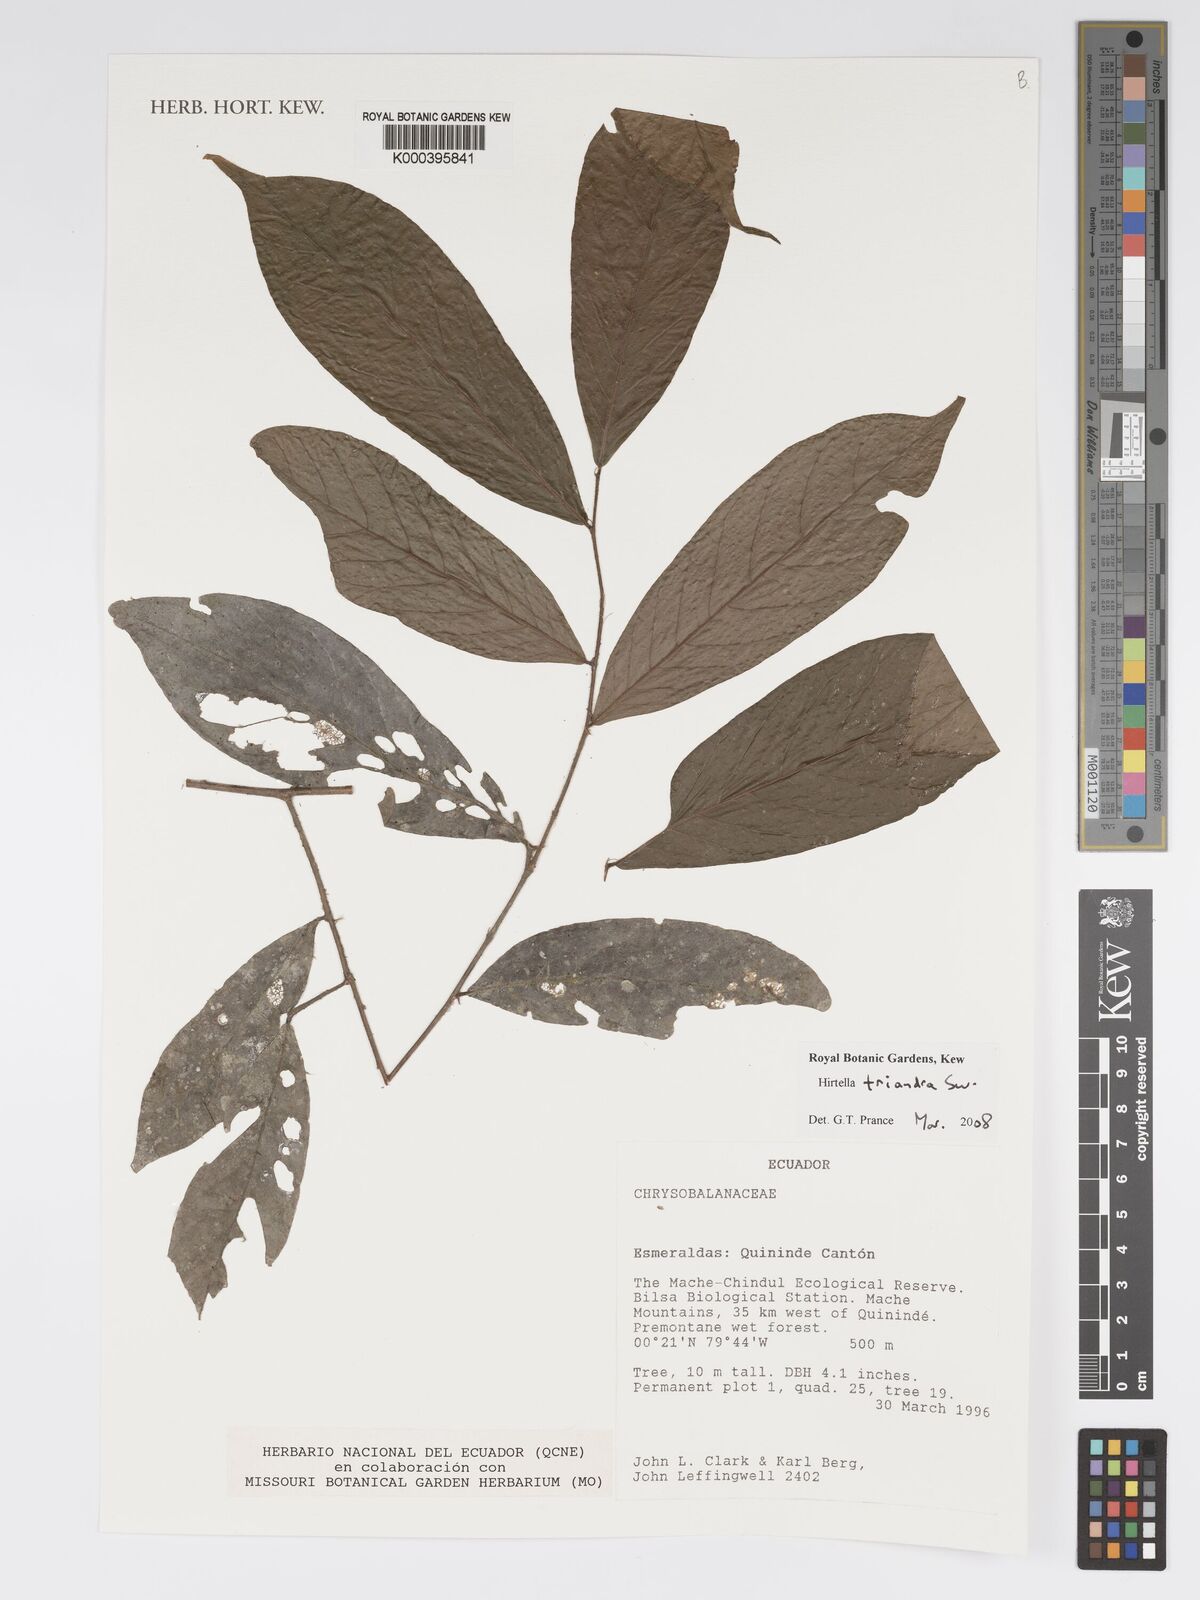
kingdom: Plantae
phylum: Tracheophyta
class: Magnoliopsida
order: Malpighiales
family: Chrysobalanaceae
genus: Hirtella
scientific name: Hirtella triandra
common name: Hairy plum
